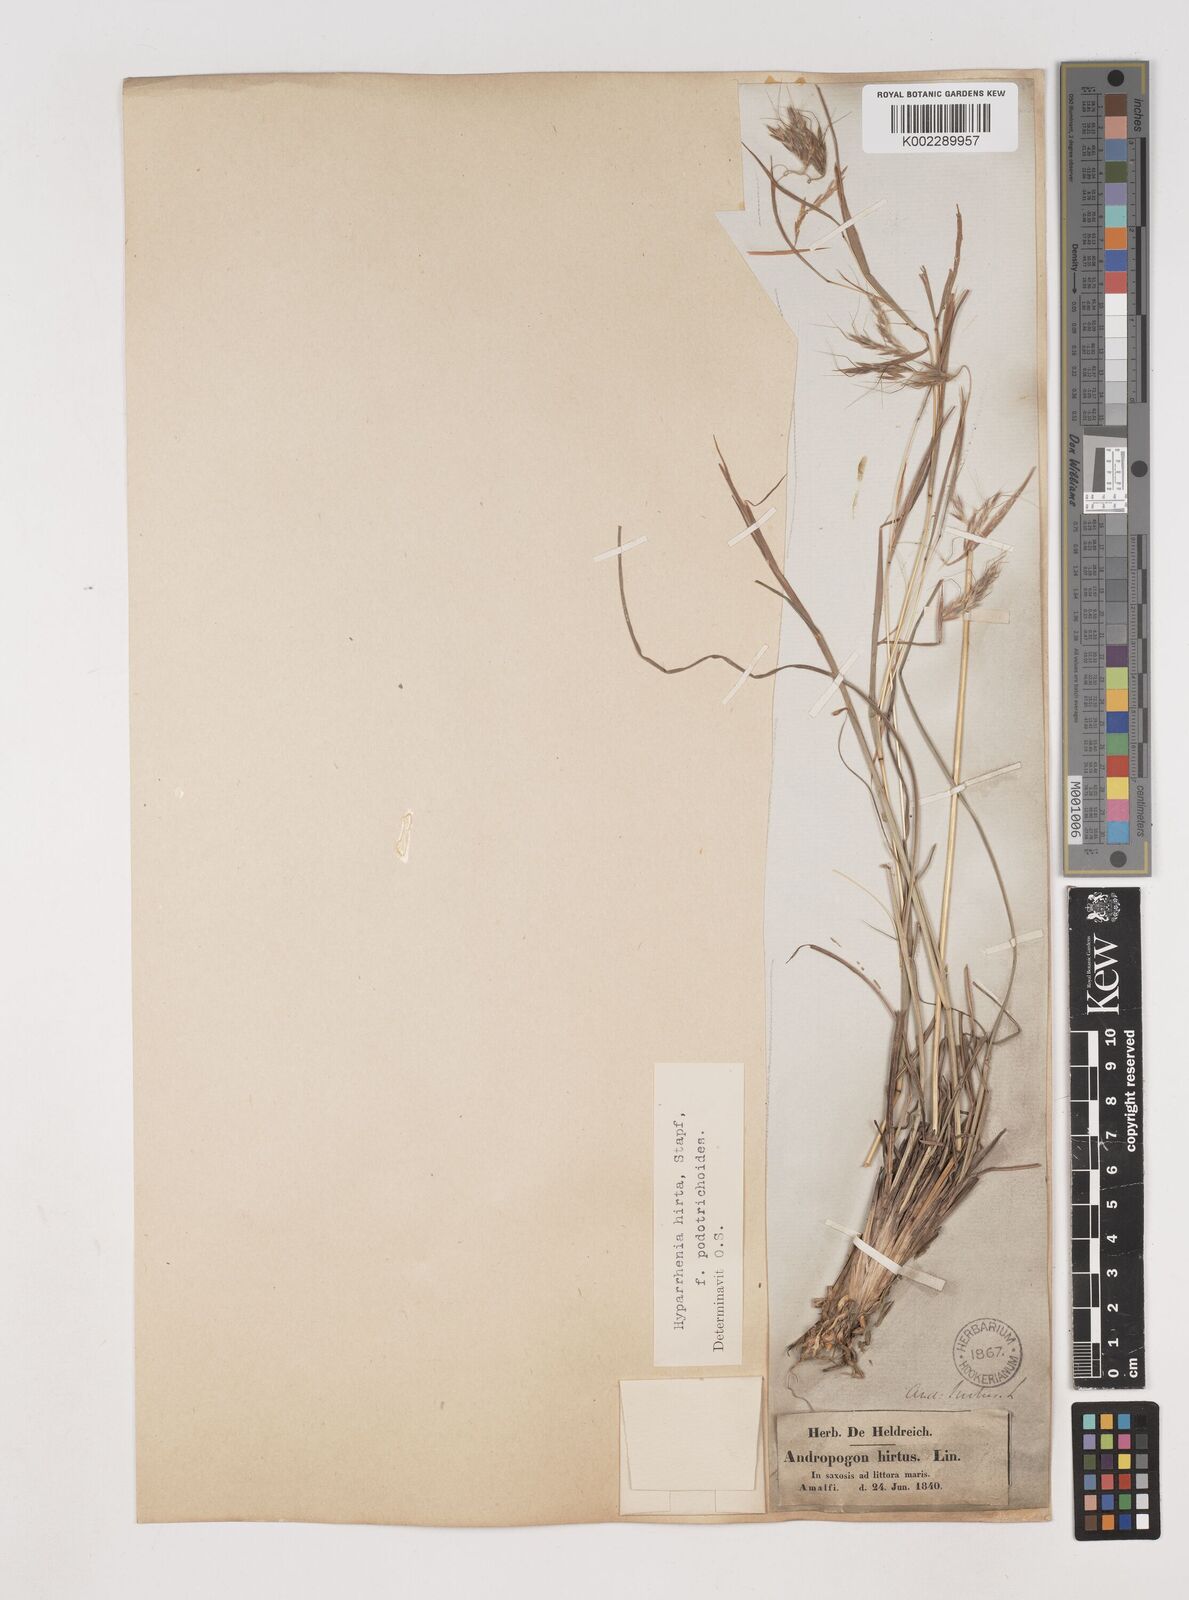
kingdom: Plantae
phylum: Tracheophyta
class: Liliopsida
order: Poales
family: Poaceae
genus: Hyparrhenia
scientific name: Hyparrhenia hirta
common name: Thatching grass
